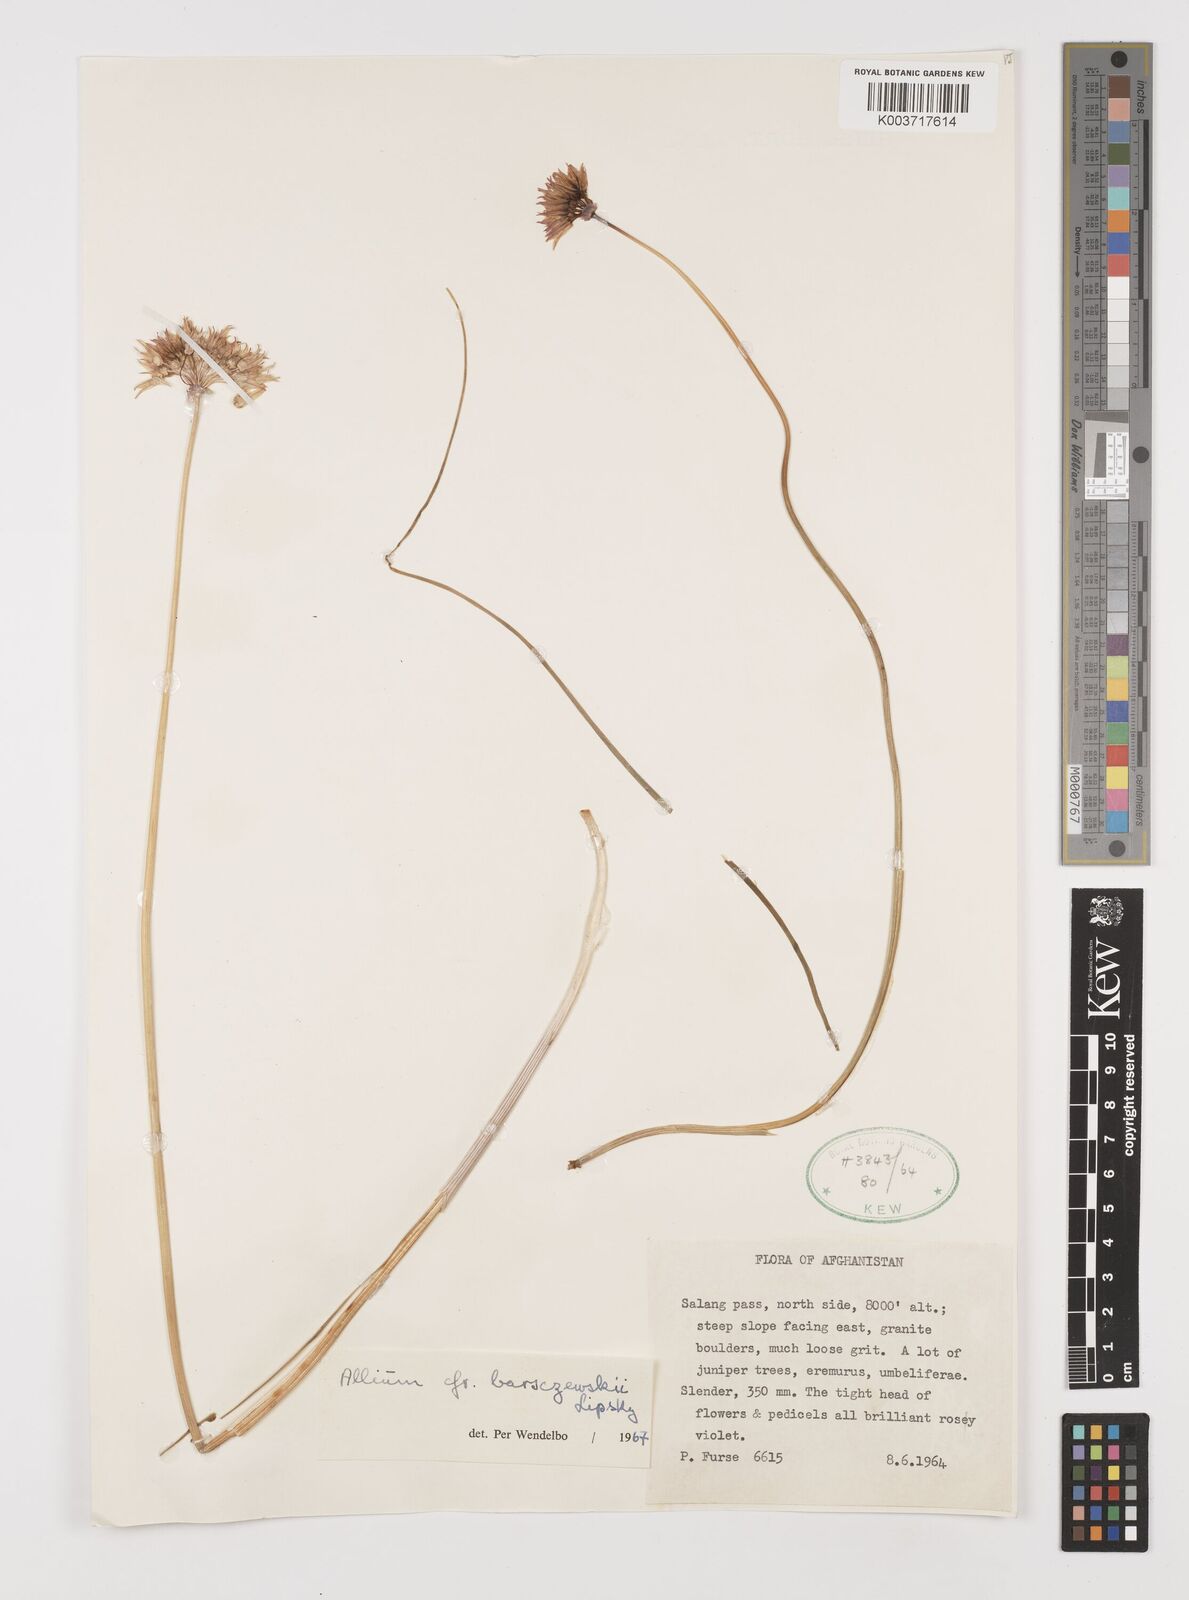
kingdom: Plantae
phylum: Tracheophyta
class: Liliopsida
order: Asparagales
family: Amaryllidaceae
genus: Allium
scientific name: Allium barsczewskii
